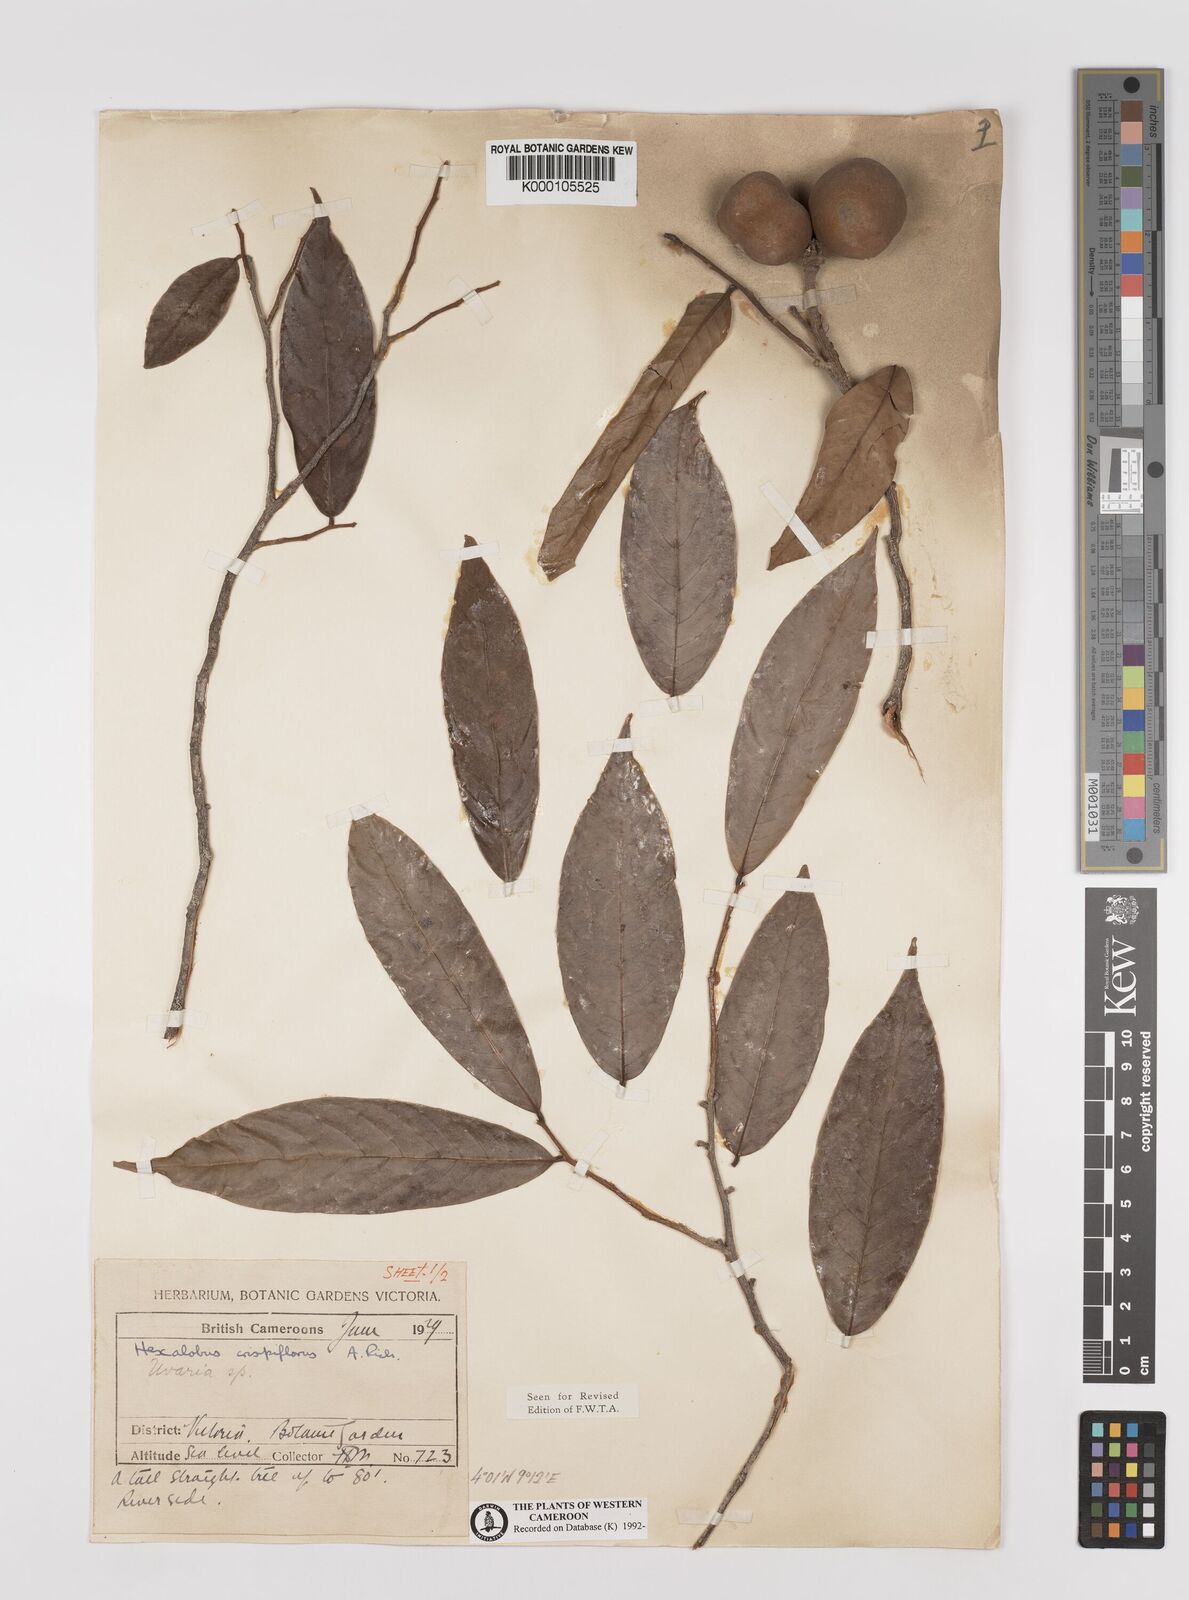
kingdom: Plantae
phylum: Tracheophyta
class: Magnoliopsida
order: Magnoliales
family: Annonaceae
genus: Hexalobus
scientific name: Hexalobus crispiflorus
